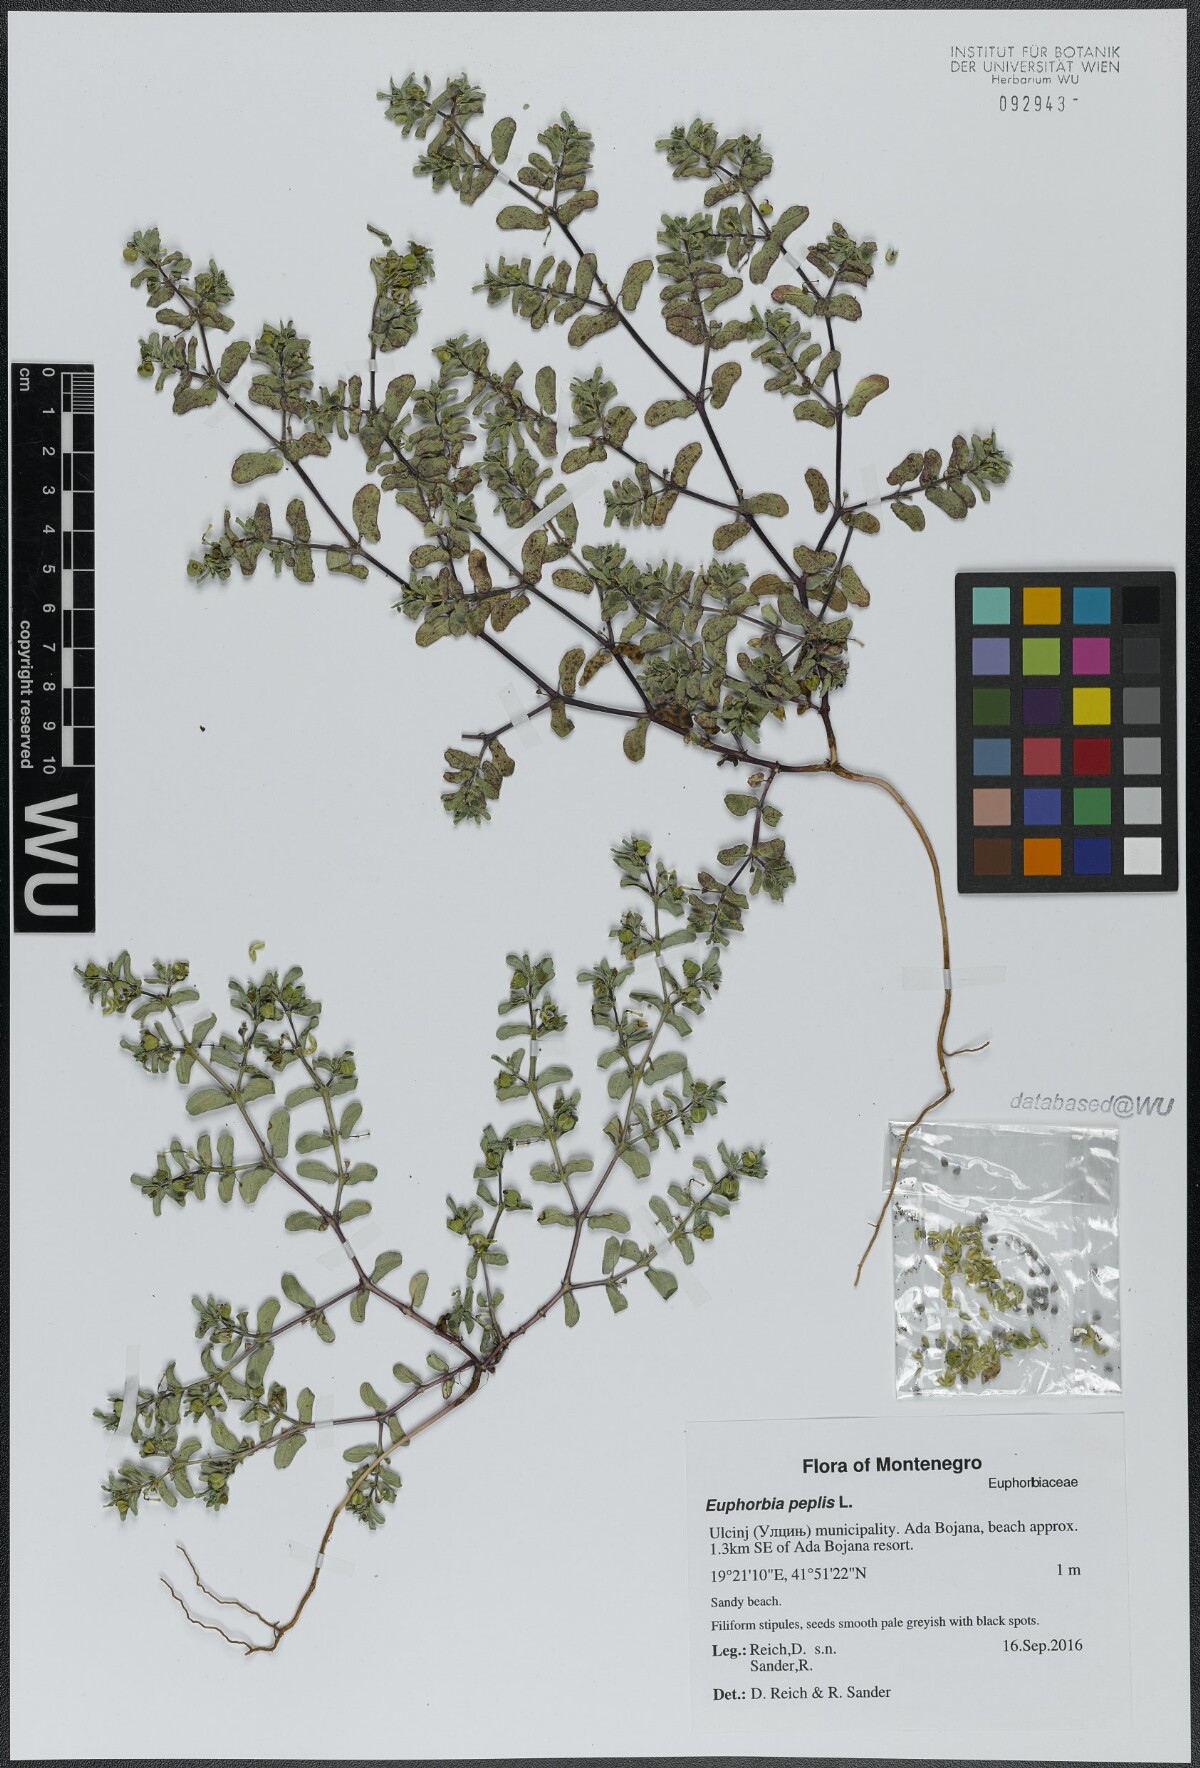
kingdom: Plantae
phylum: Tracheophyta
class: Magnoliopsida
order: Malpighiales
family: Euphorbiaceae
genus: Euphorbia
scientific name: Euphorbia peplis
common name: Purple spurge
